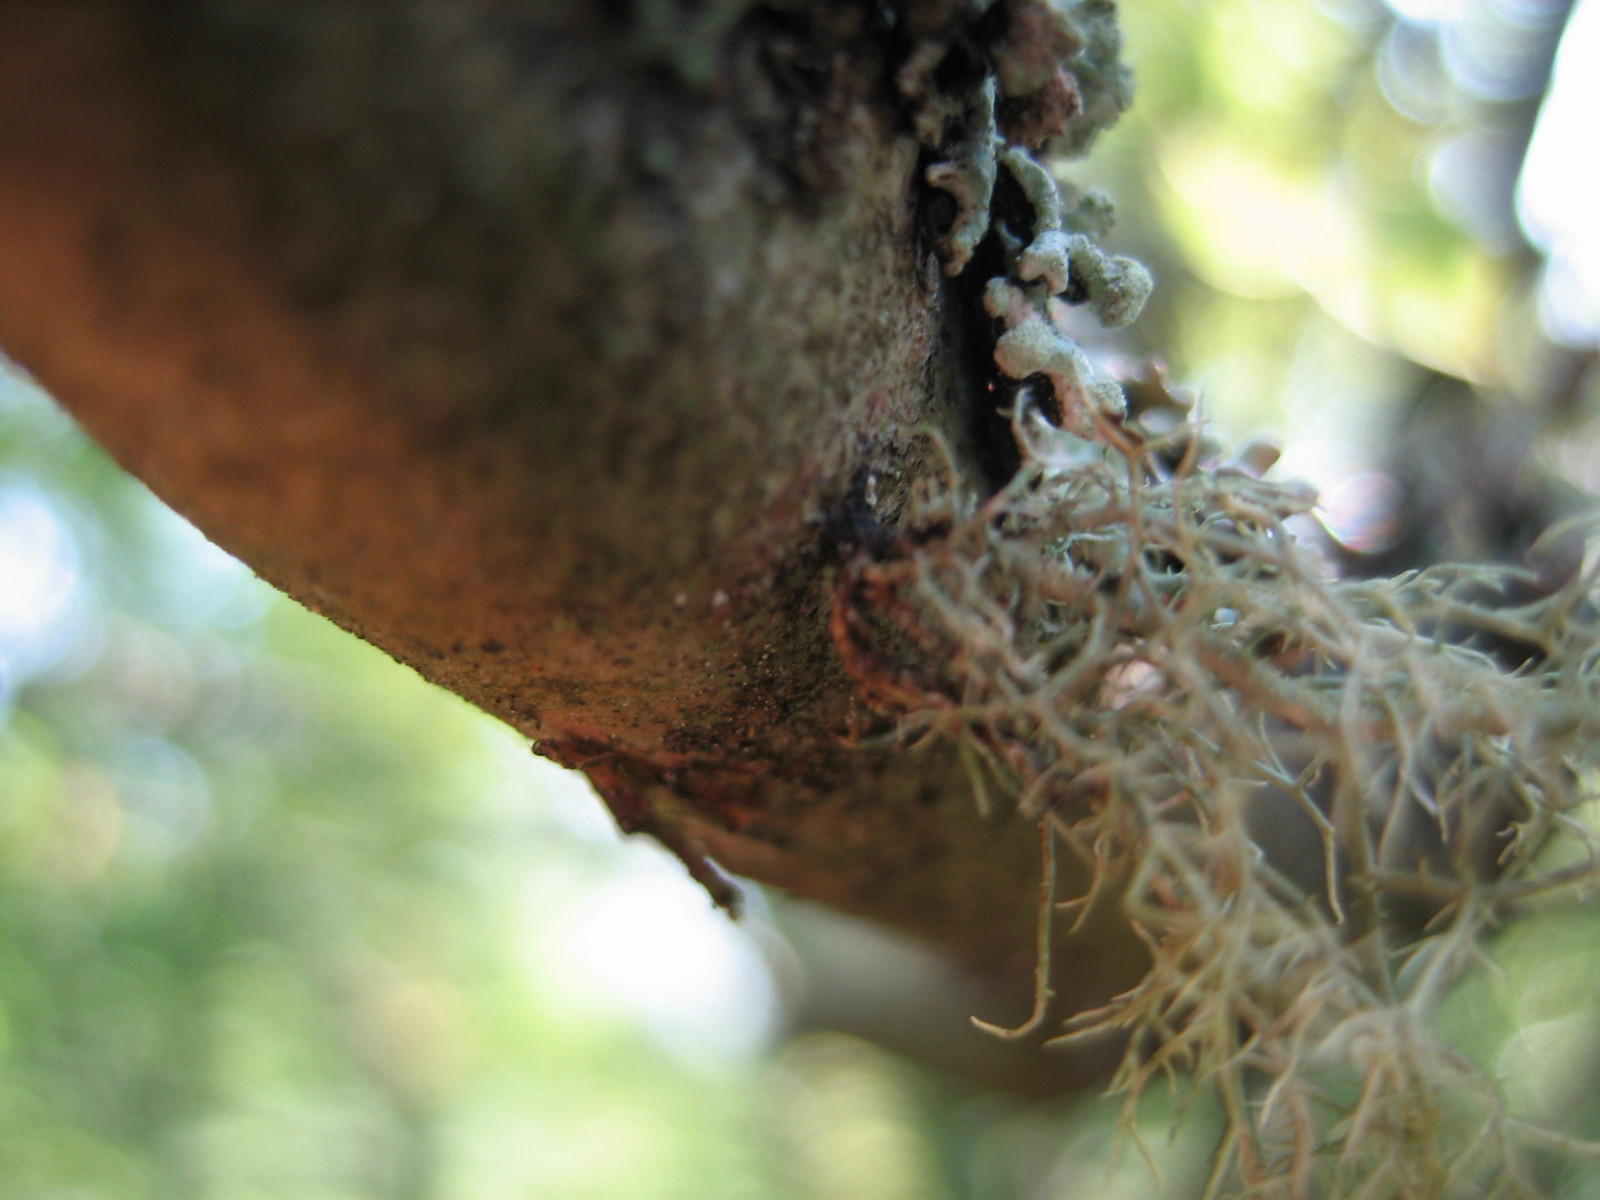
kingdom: Fungi
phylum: Ascomycota
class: Lecanoromycetes
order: Lecanorales
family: Parmeliaceae
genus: Usnea
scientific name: Usnea subfloridana
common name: busket skæglav
